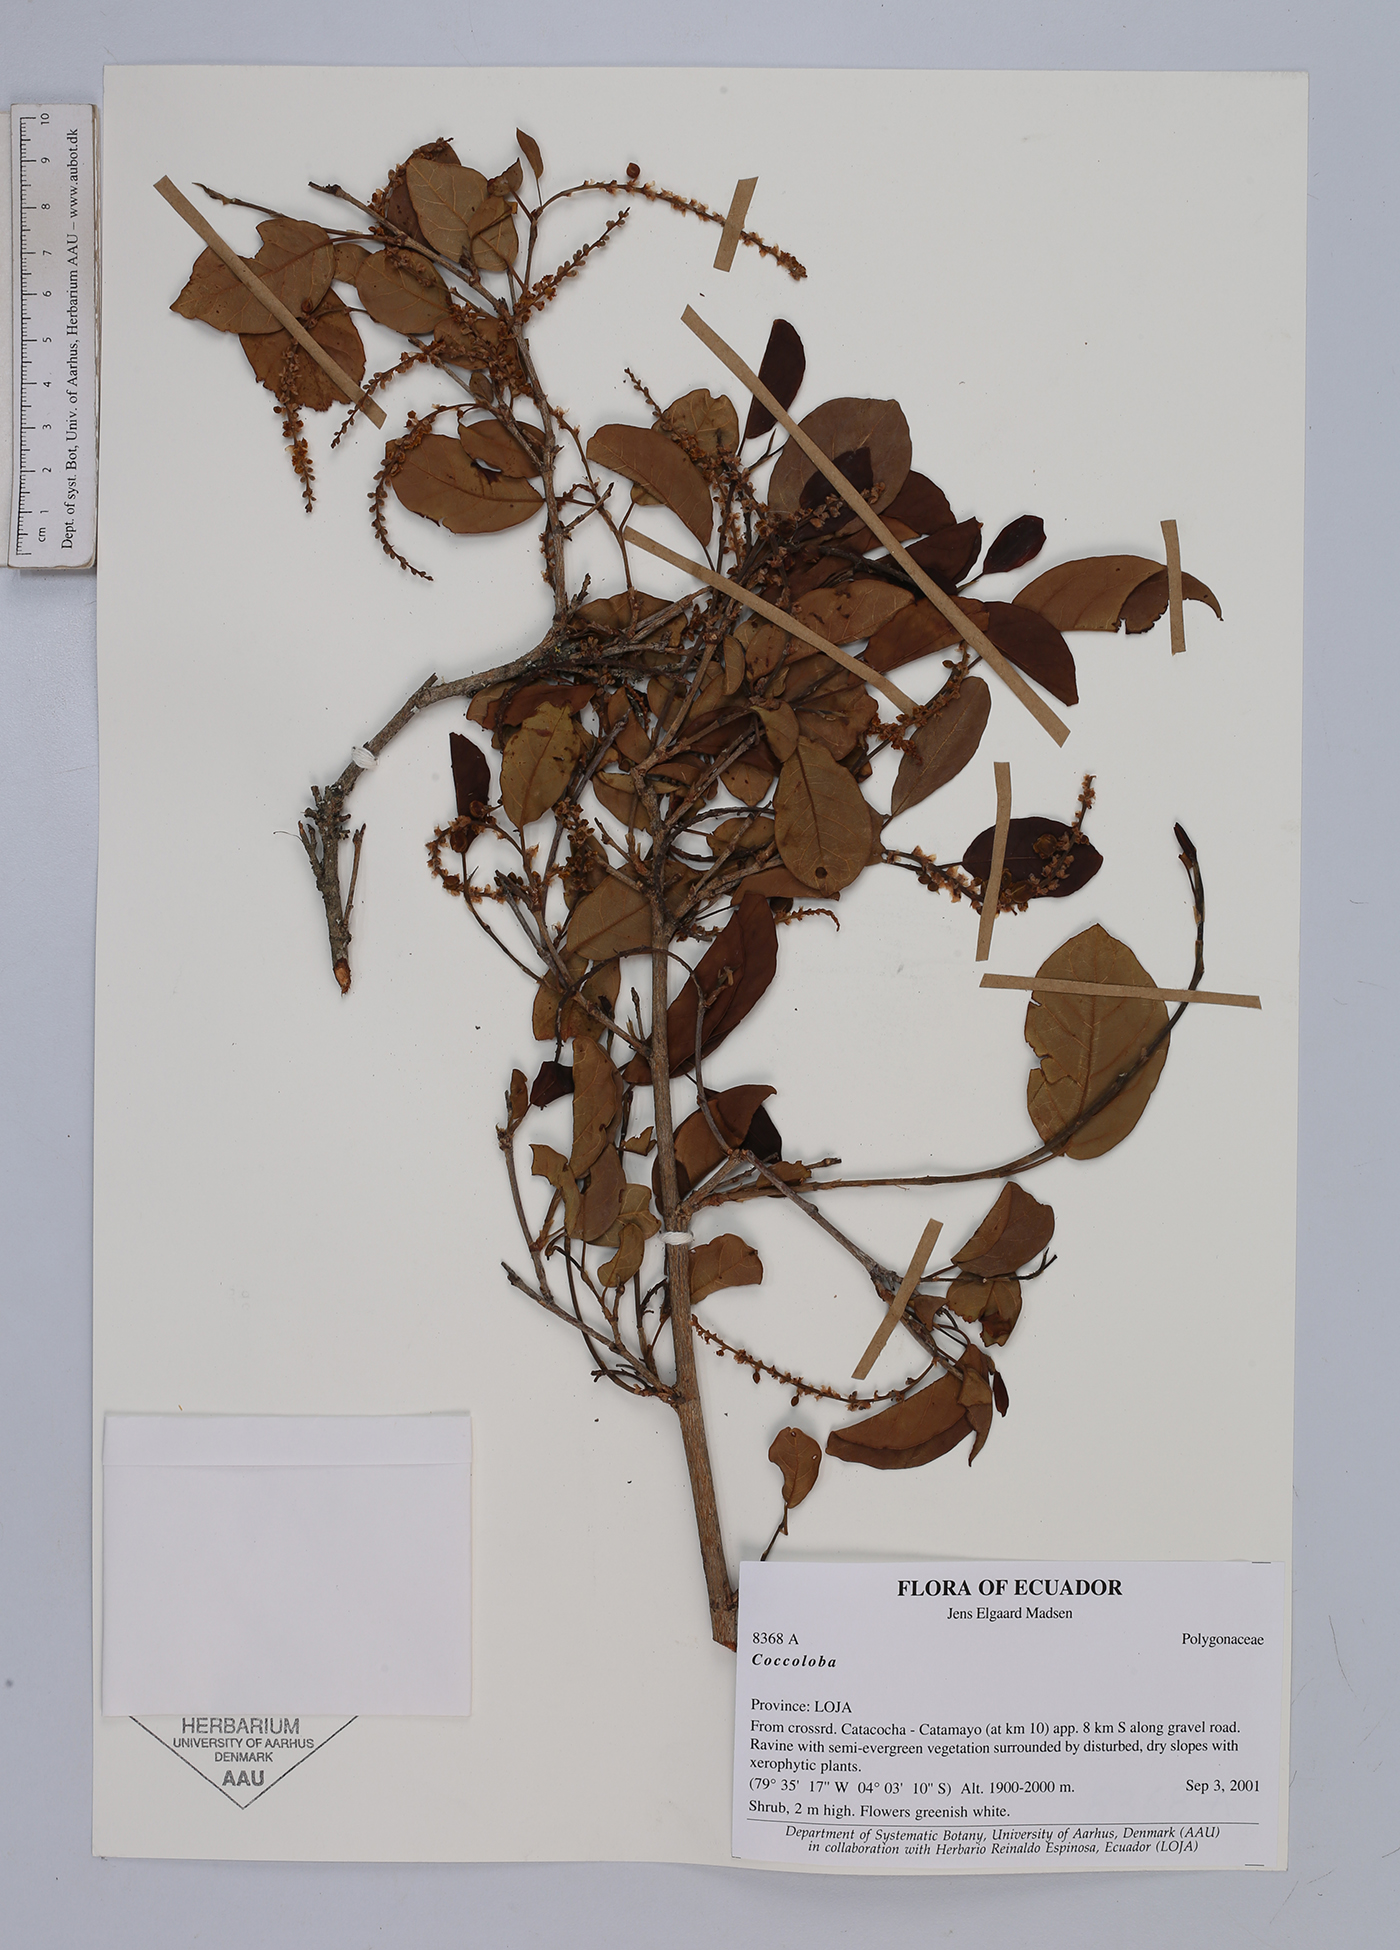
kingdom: Plantae
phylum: Tracheophyta
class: Magnoliopsida
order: Caryophyllales
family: Polygonaceae
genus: Coccoloba
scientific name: Coccoloba
